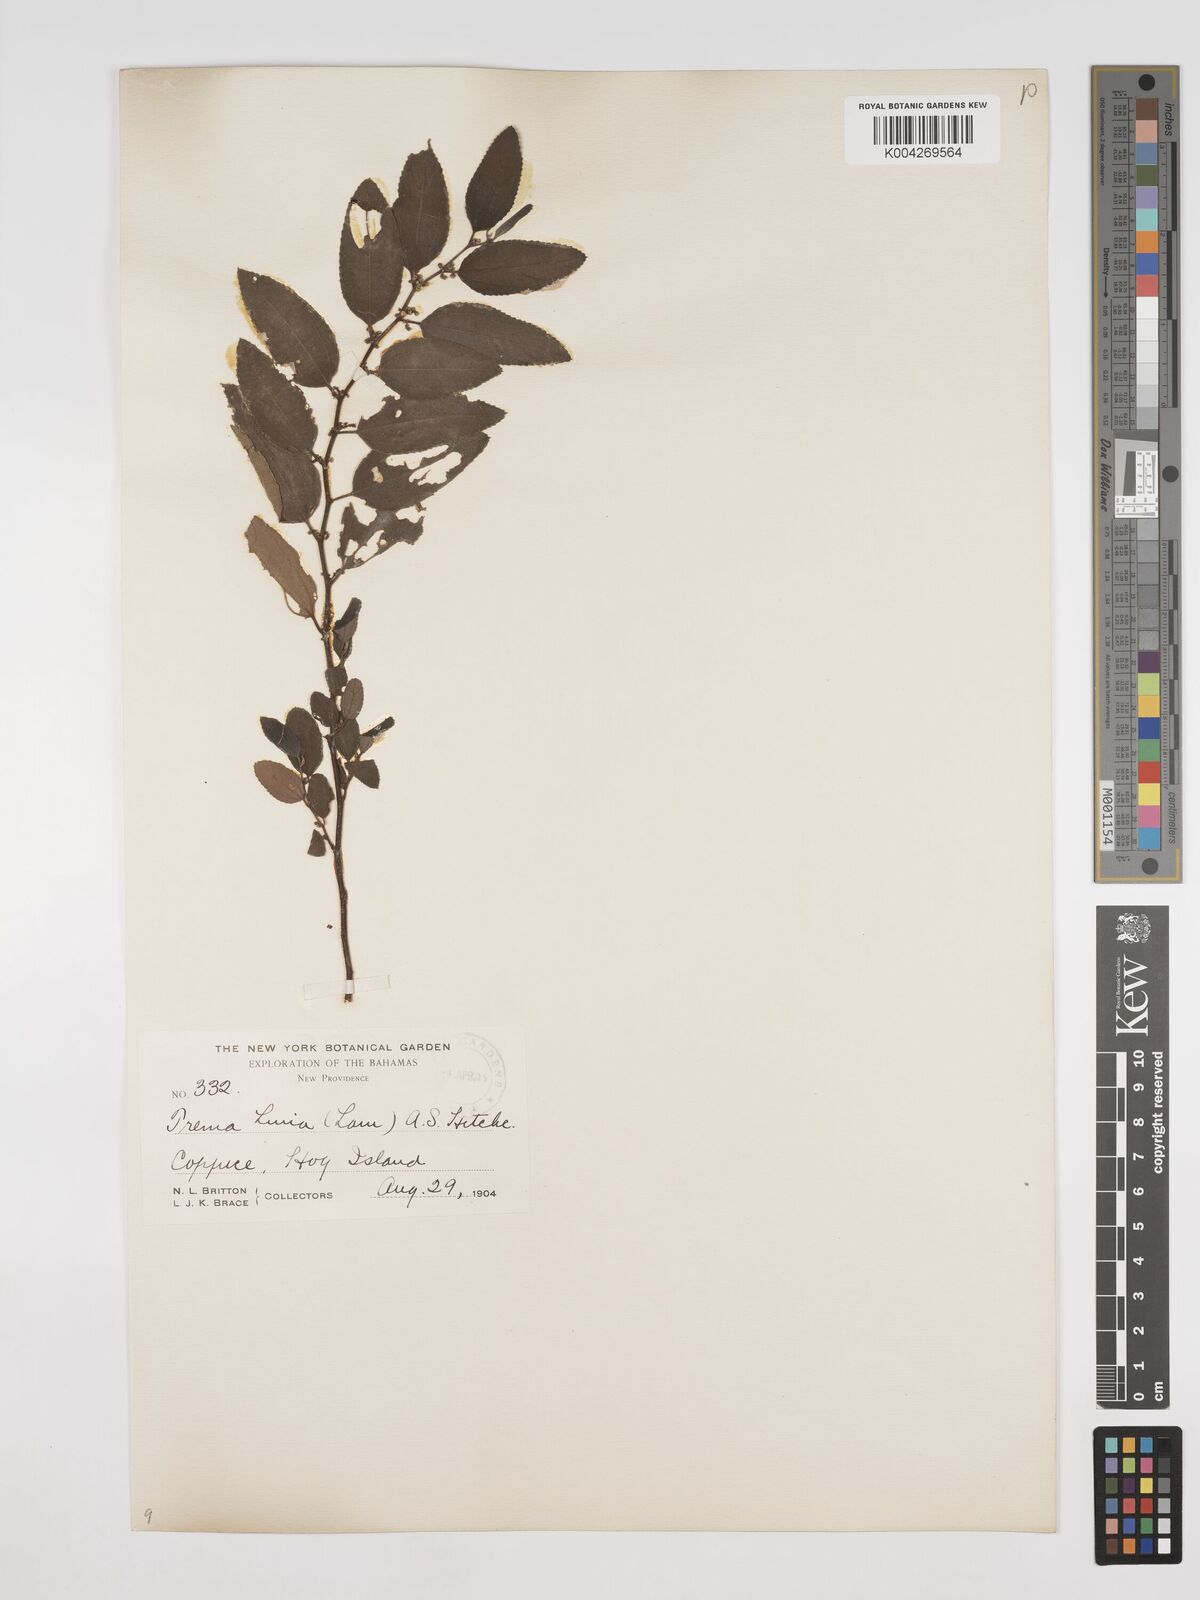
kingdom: Plantae
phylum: Tracheophyta
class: Magnoliopsida
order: Rosales
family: Cannabaceae
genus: Trema
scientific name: Trema micranthum
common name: Jamaican nettletree
